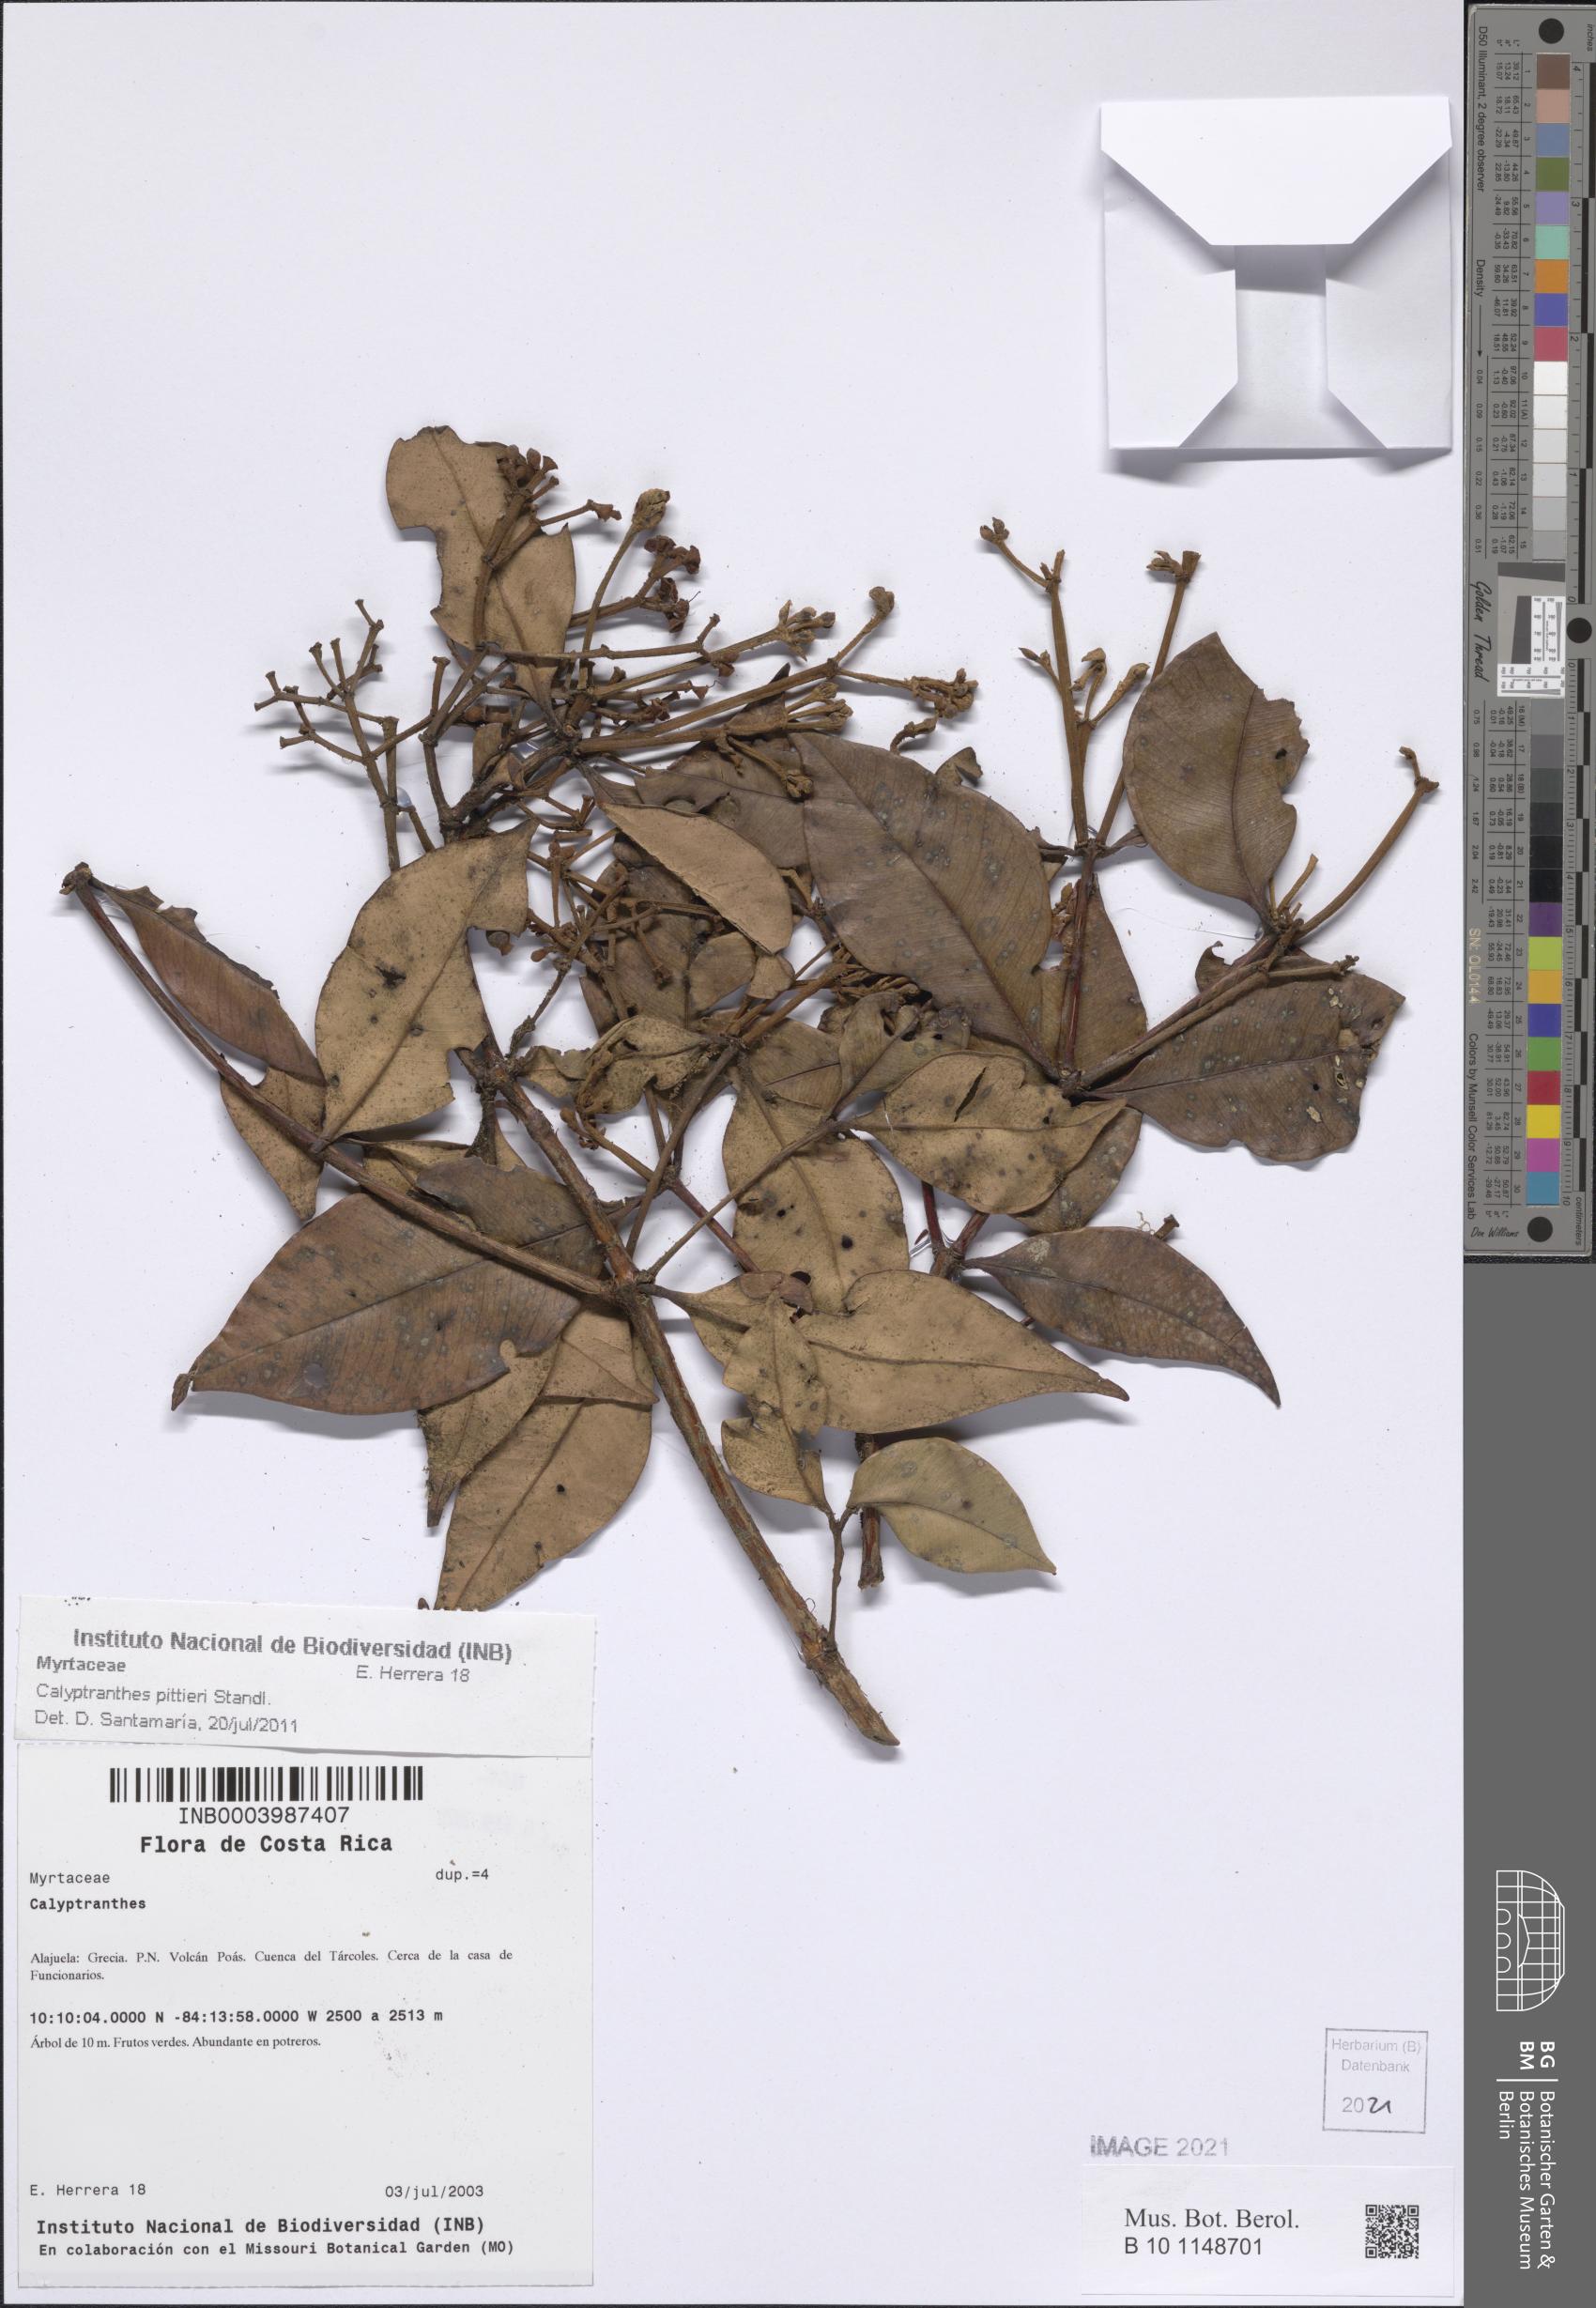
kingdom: Plantae
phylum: Tracheophyta
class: Magnoliopsida
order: Myrtales
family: Myrtaceae
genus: Calyptranthes
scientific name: Calyptranthes
